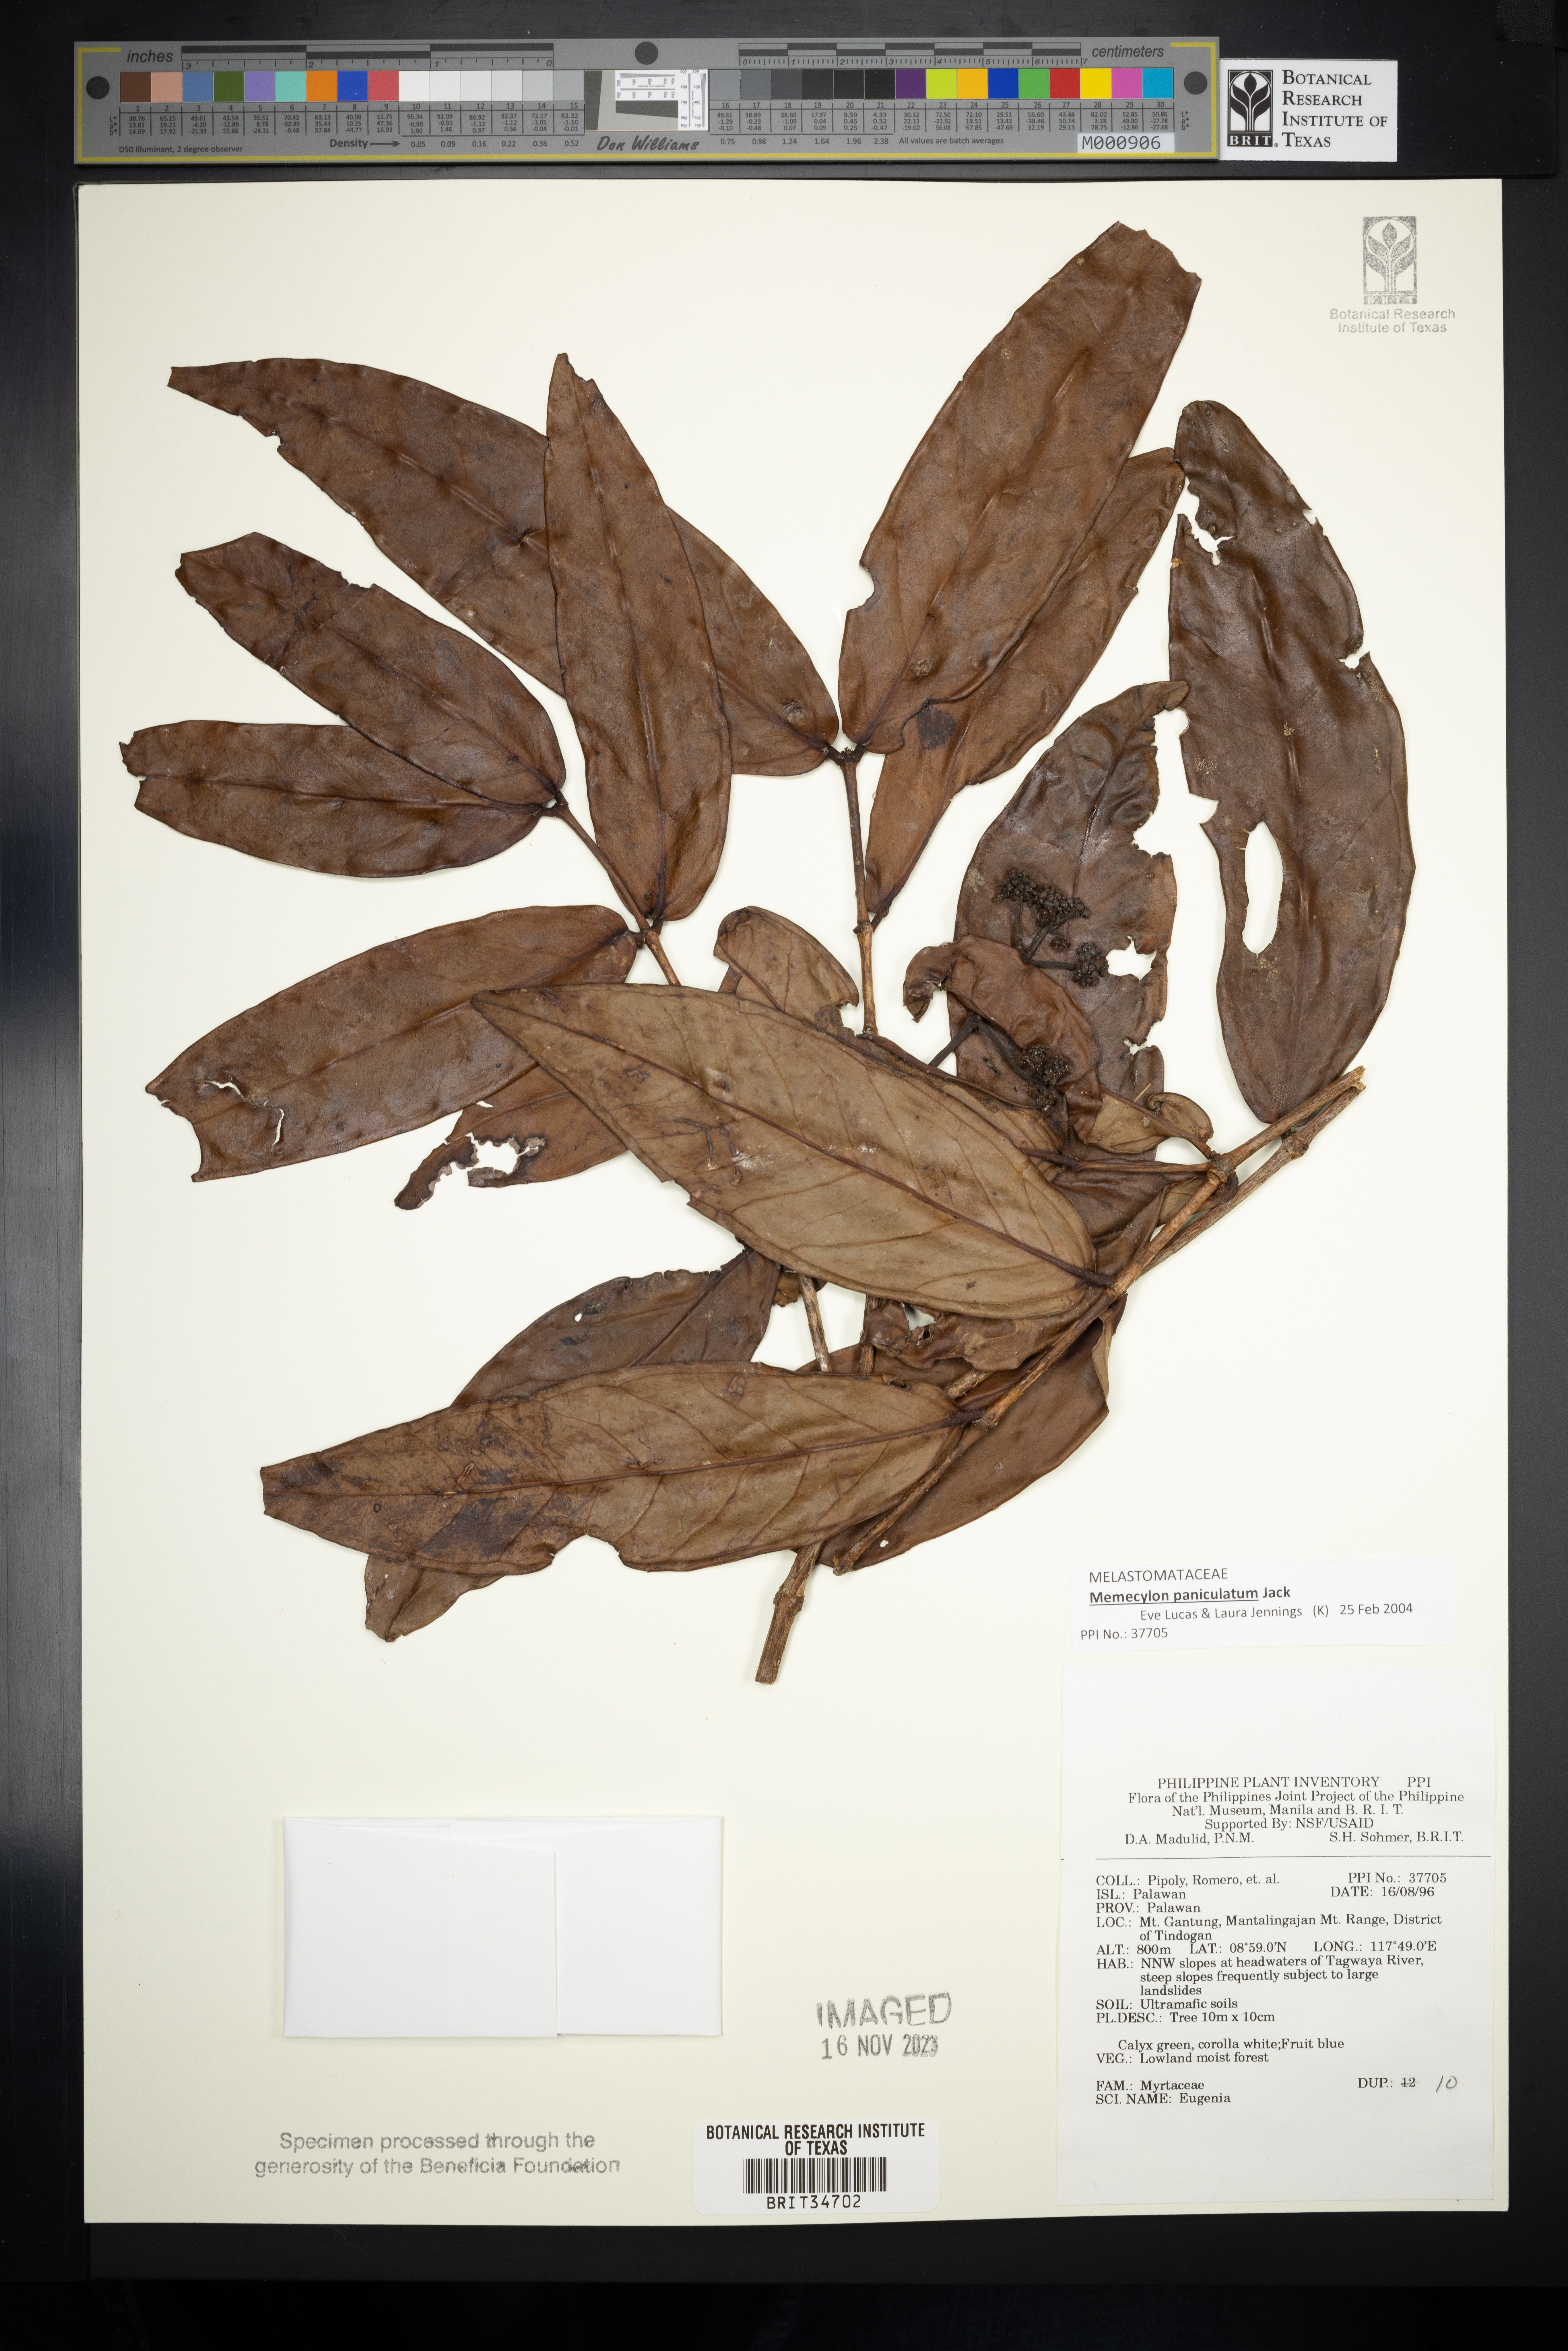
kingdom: Plantae
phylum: Tracheophyta
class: Magnoliopsida
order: Myrtales
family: Myrtaceae
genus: Eugenia
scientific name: Eugenia
